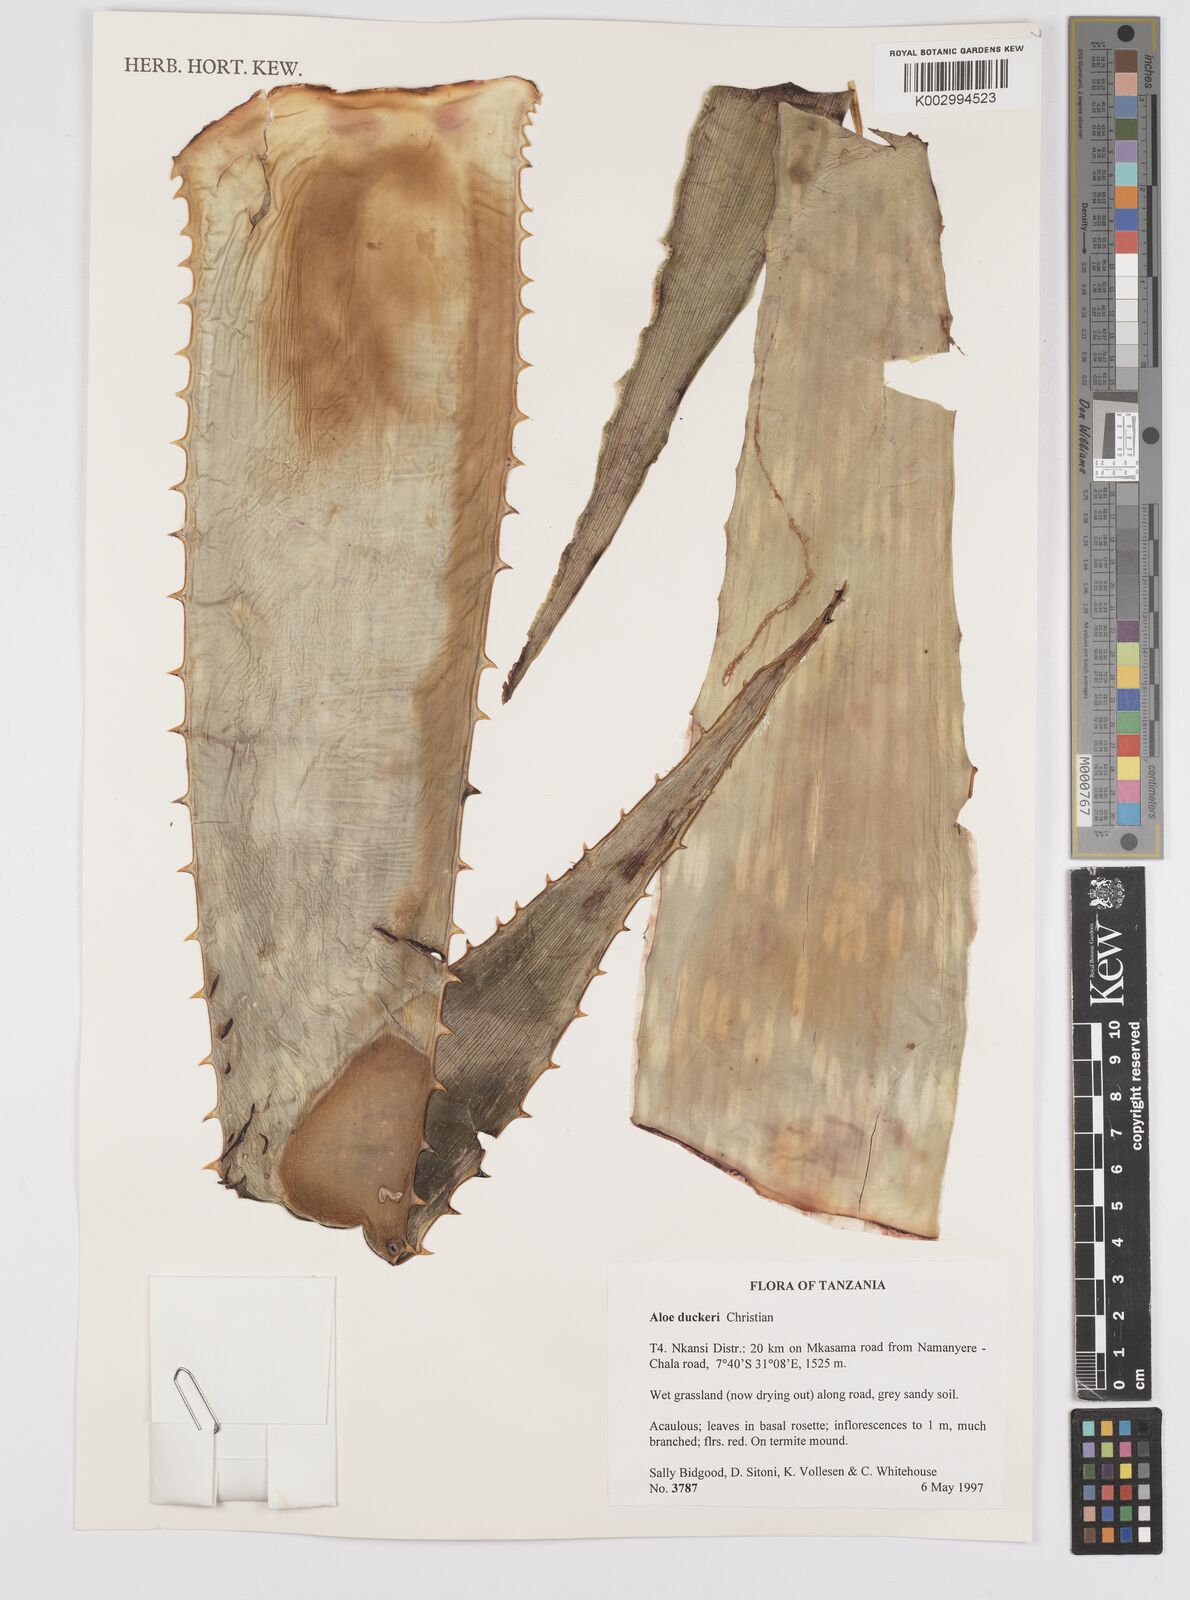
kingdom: Plantae
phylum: Tracheophyta
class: Liliopsida
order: Asparagales
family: Asphodelaceae
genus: Aloe
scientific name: Aloe duckeri
